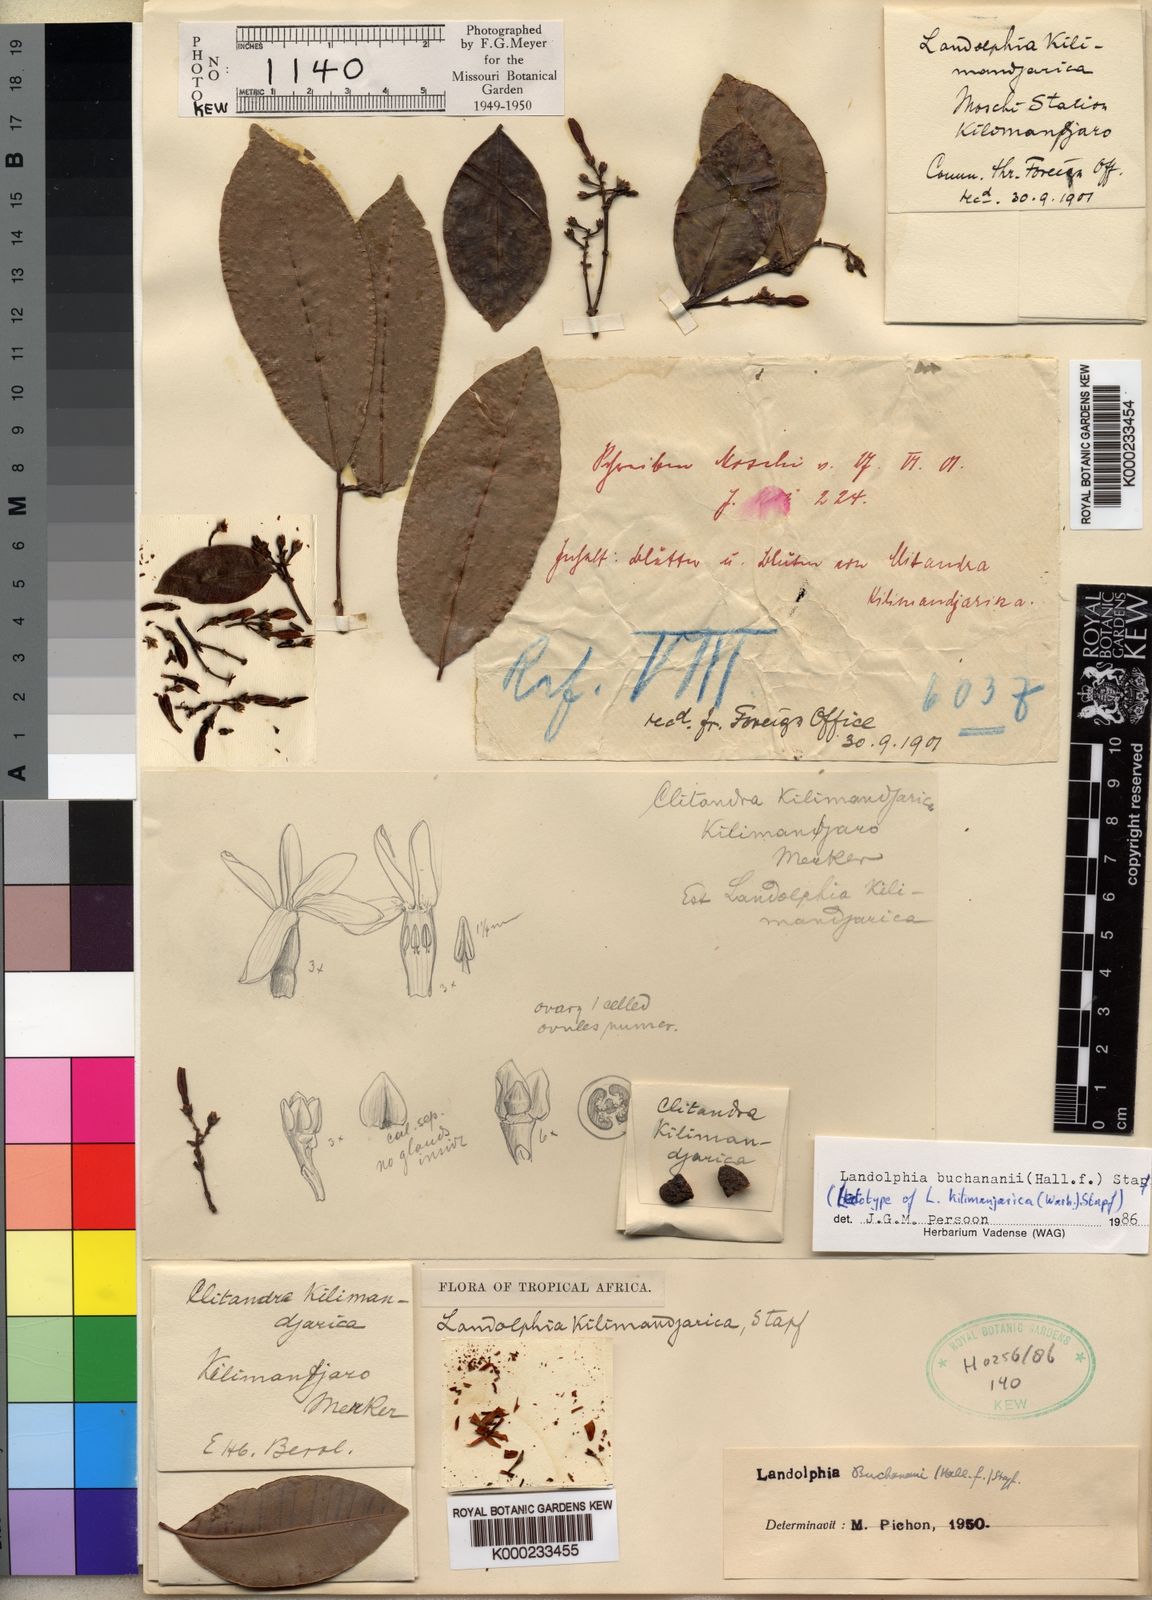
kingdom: Plantae
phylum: Tracheophyta
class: Magnoliopsida
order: Gentianales
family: Apocynaceae
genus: Landolphia
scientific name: Landolphia buchananii
